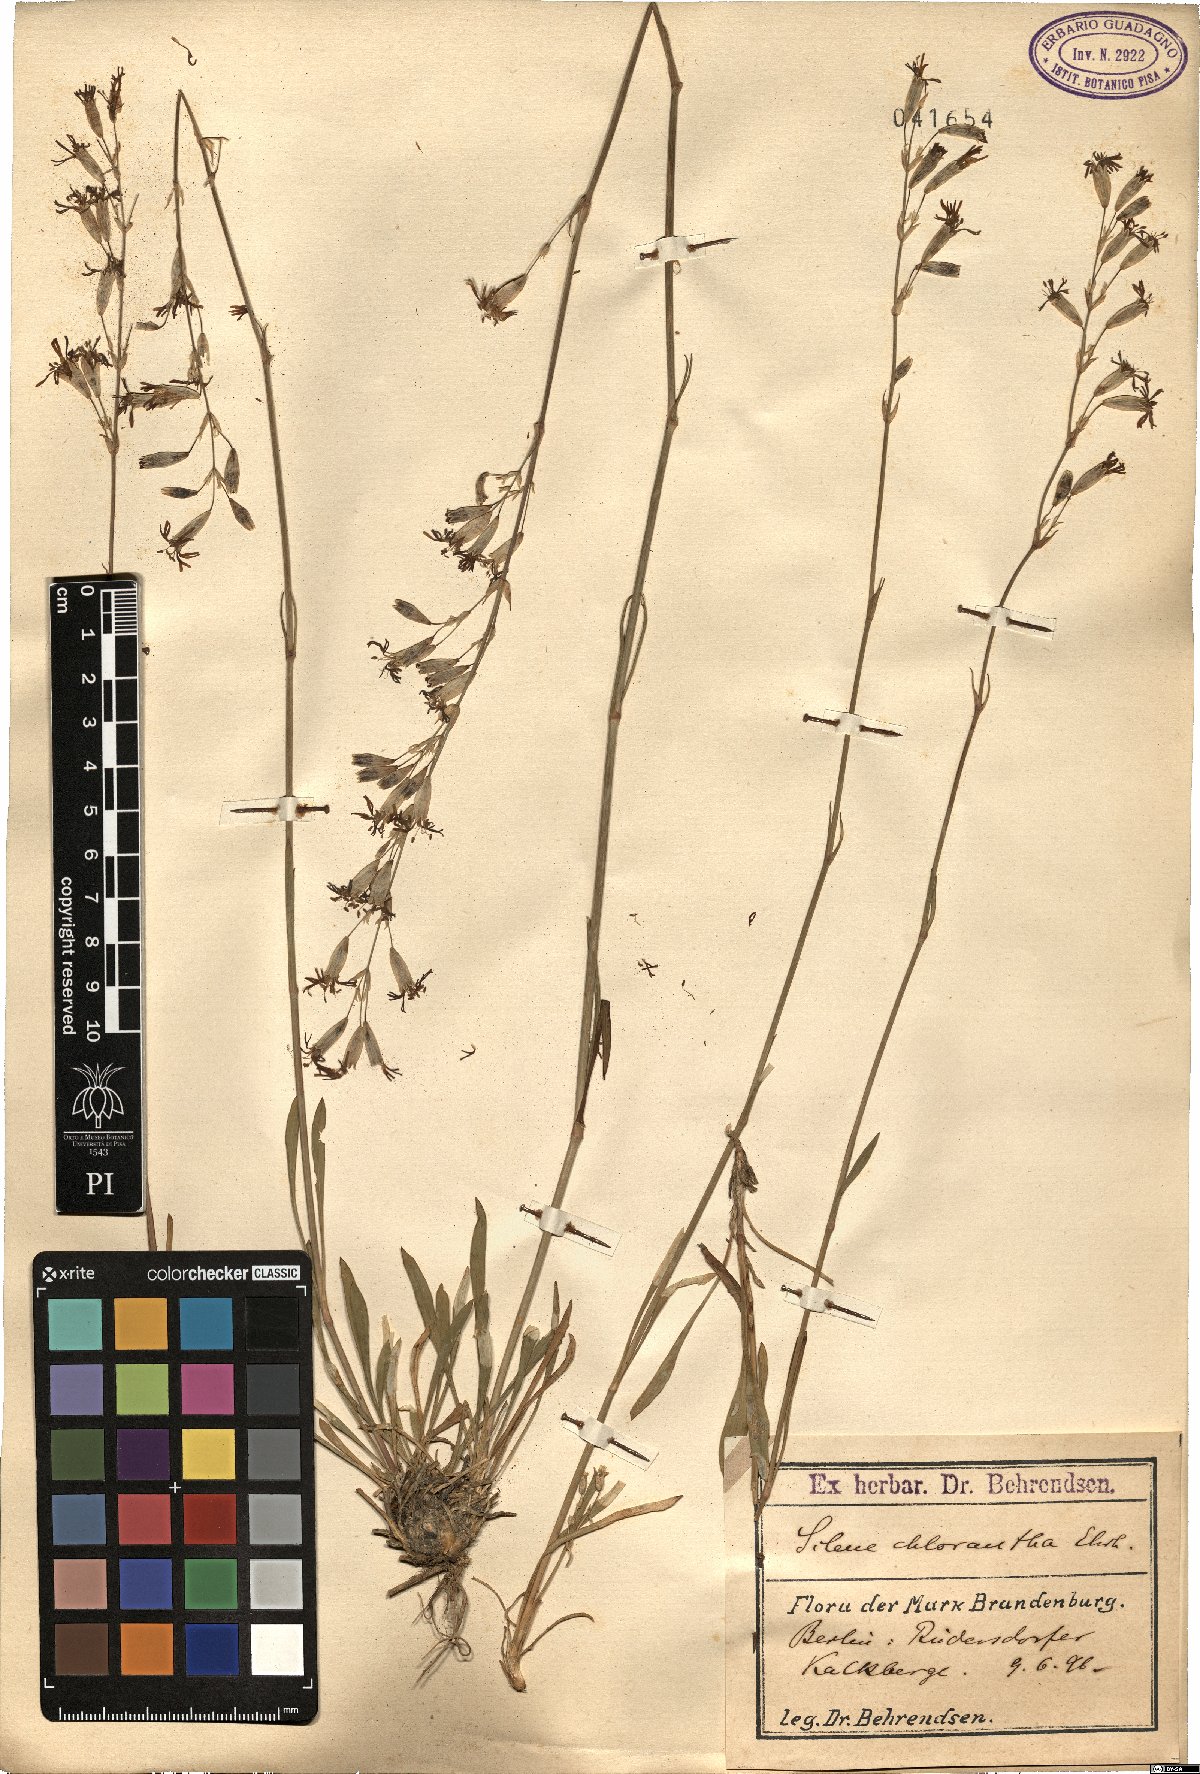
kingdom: Plantae
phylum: Tracheophyta
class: Magnoliopsida
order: Caryophyllales
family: Caryophyllaceae
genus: Silene
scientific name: Silene chlorantha
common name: Yellowgreen catchfly
